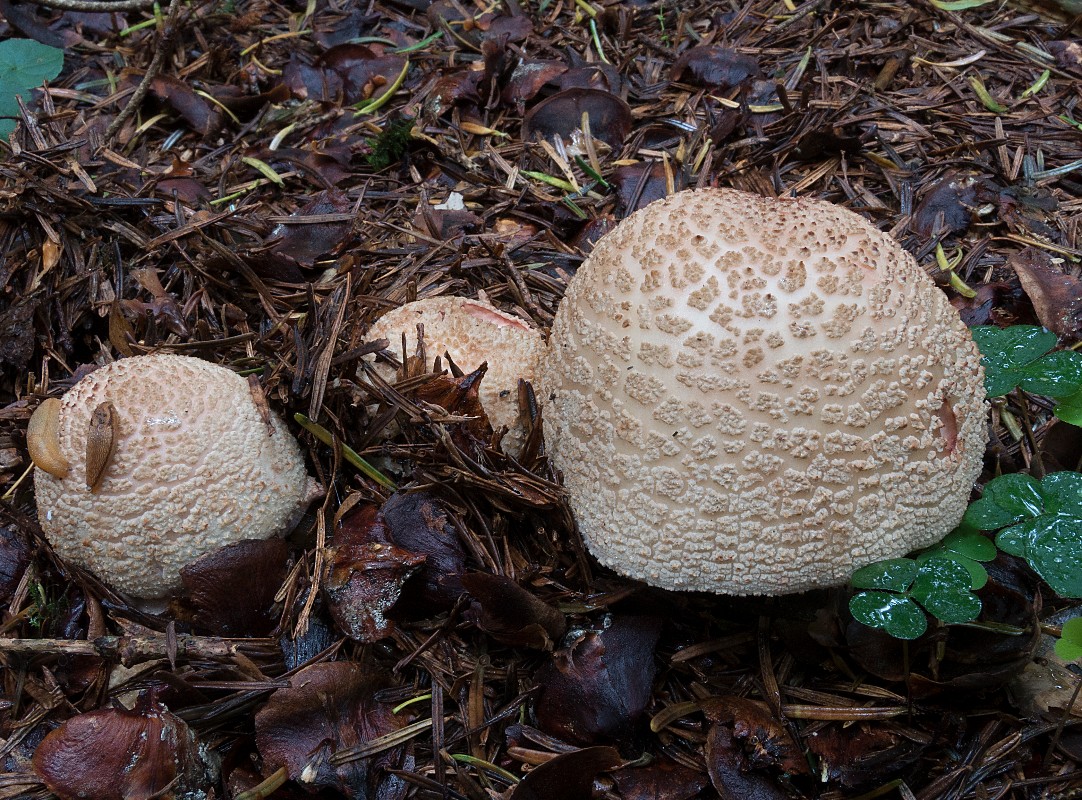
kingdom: Fungi
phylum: Basidiomycota
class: Agaricomycetes
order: Agaricales
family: Amanitaceae
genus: Amanita
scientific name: Amanita rubescens
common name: rødmende fluesvamp
